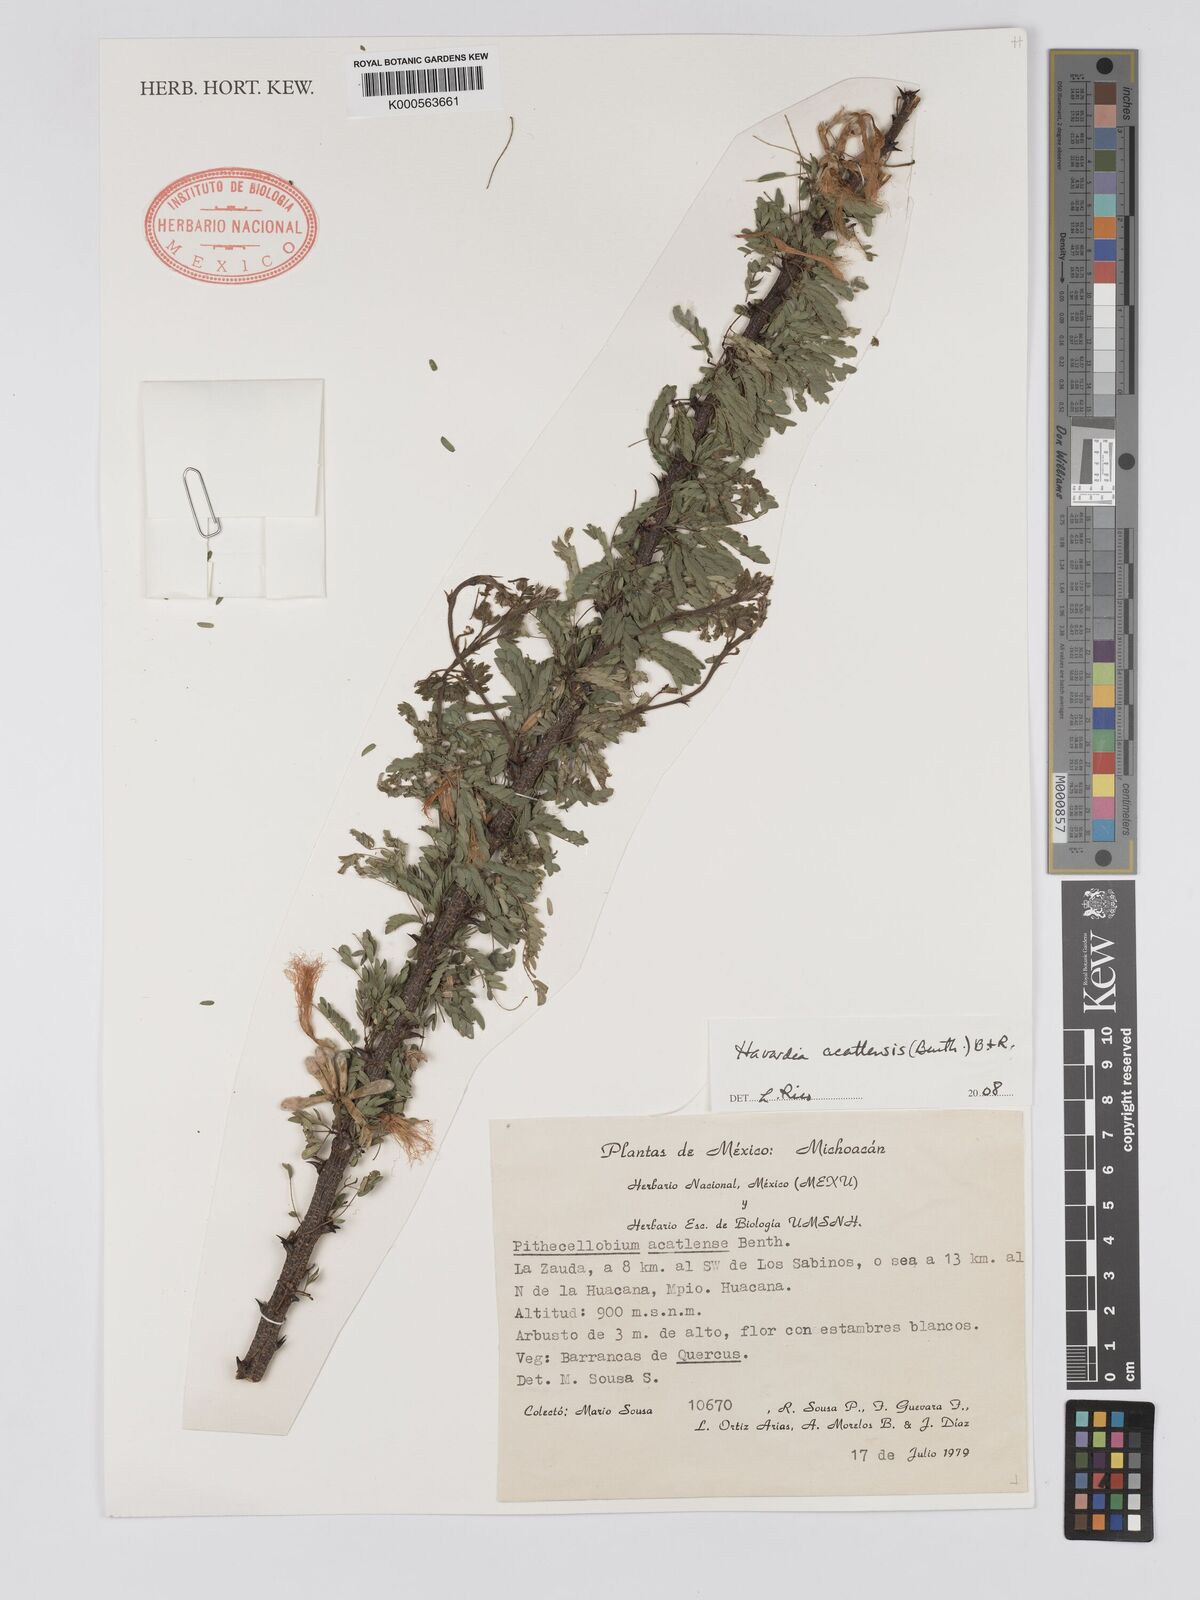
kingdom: Plantae
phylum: Tracheophyta
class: Magnoliopsida
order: Fabales
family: Fabaceae
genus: Havardia
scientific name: Havardia acatlensis
